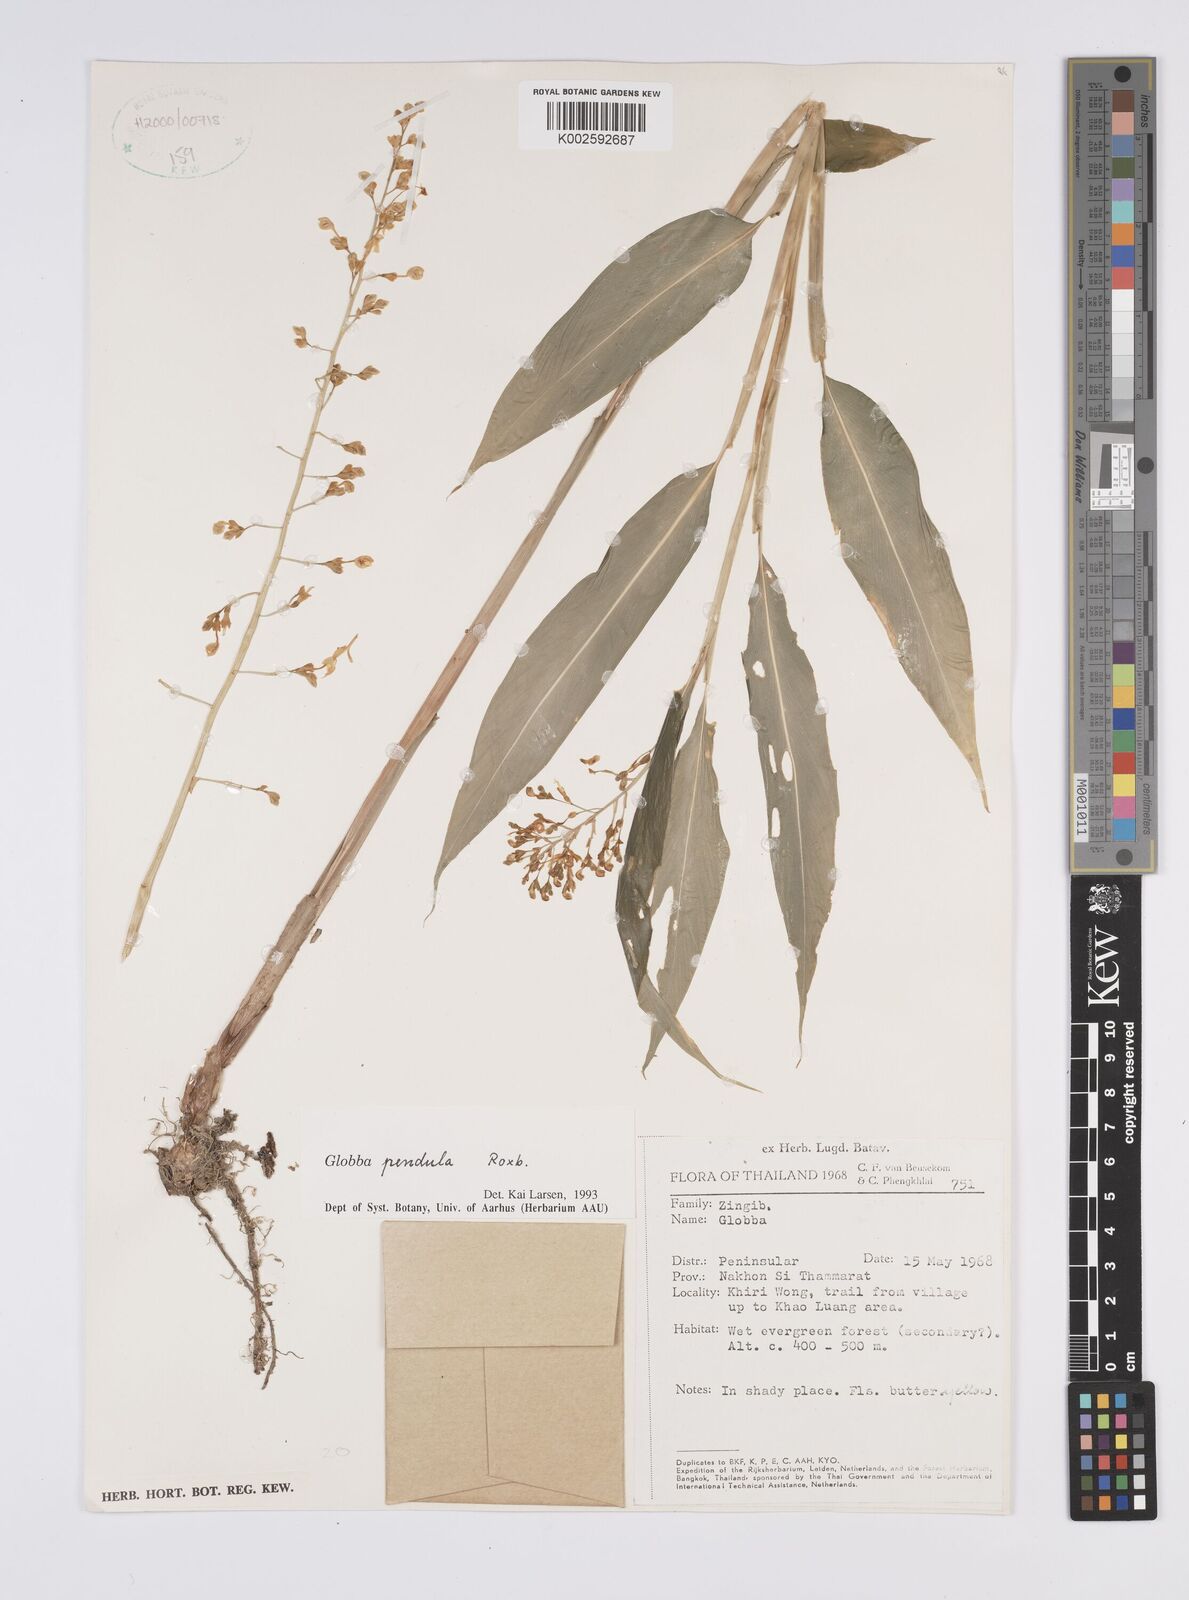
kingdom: Plantae
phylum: Tracheophyta
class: Liliopsida
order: Zingiberales
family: Zingiberaceae
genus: Globba
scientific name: Globba pendula
